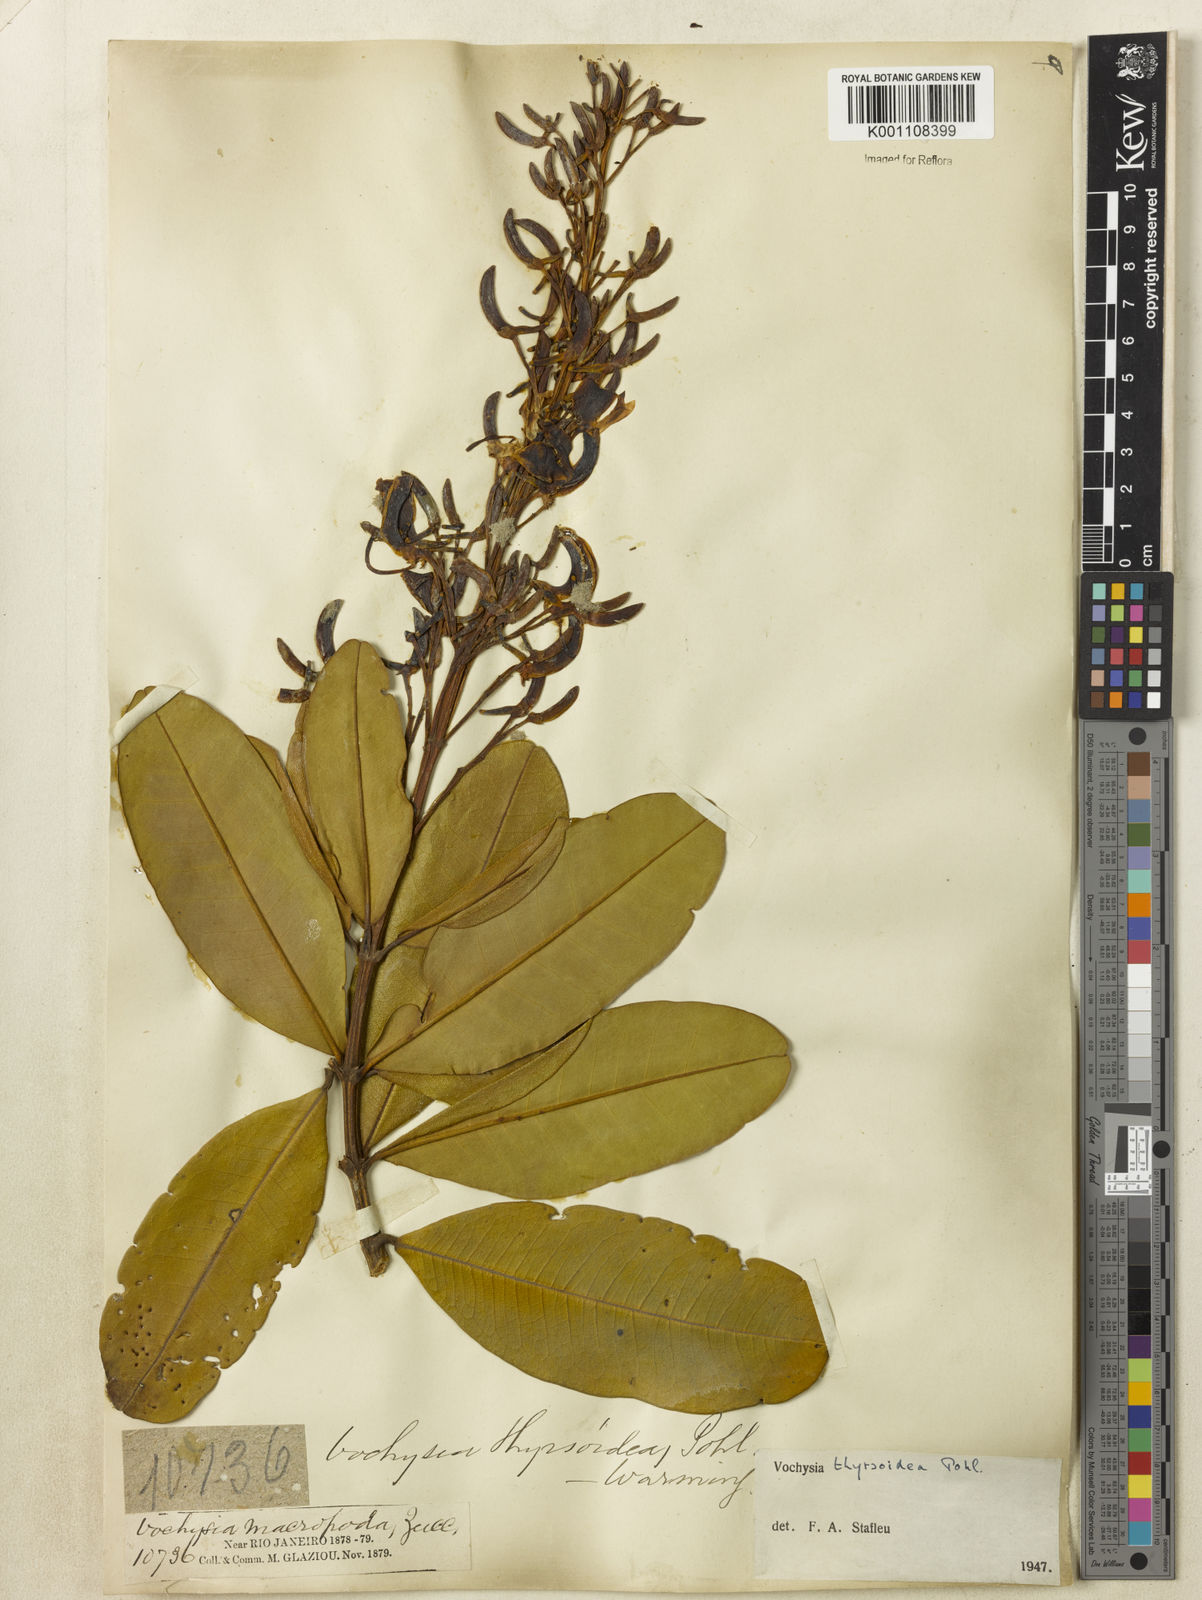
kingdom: Plantae
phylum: Tracheophyta
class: Magnoliopsida
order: Myrtales
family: Vochysiaceae
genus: Vochysia
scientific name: Vochysia thyrsoidea
